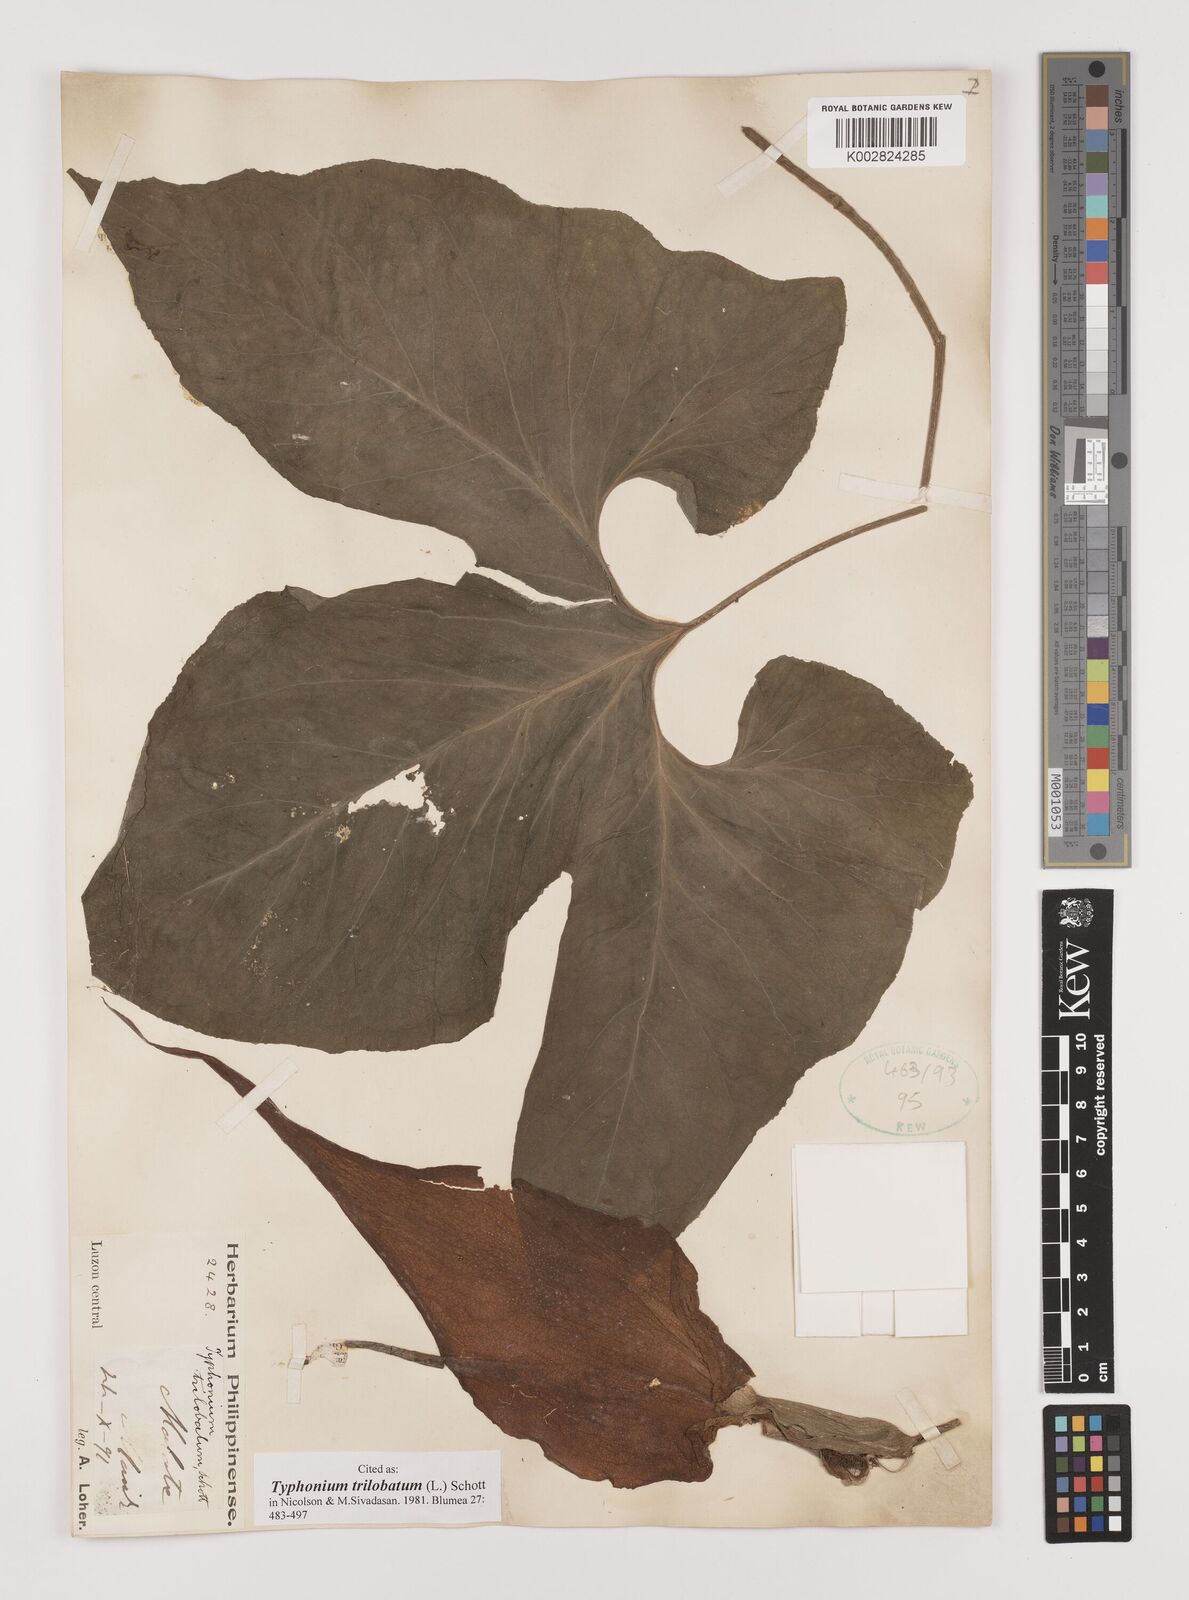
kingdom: Plantae
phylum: Tracheophyta
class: Liliopsida
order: Alismatales
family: Araceae
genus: Typhonium
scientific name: Typhonium trilobatum
